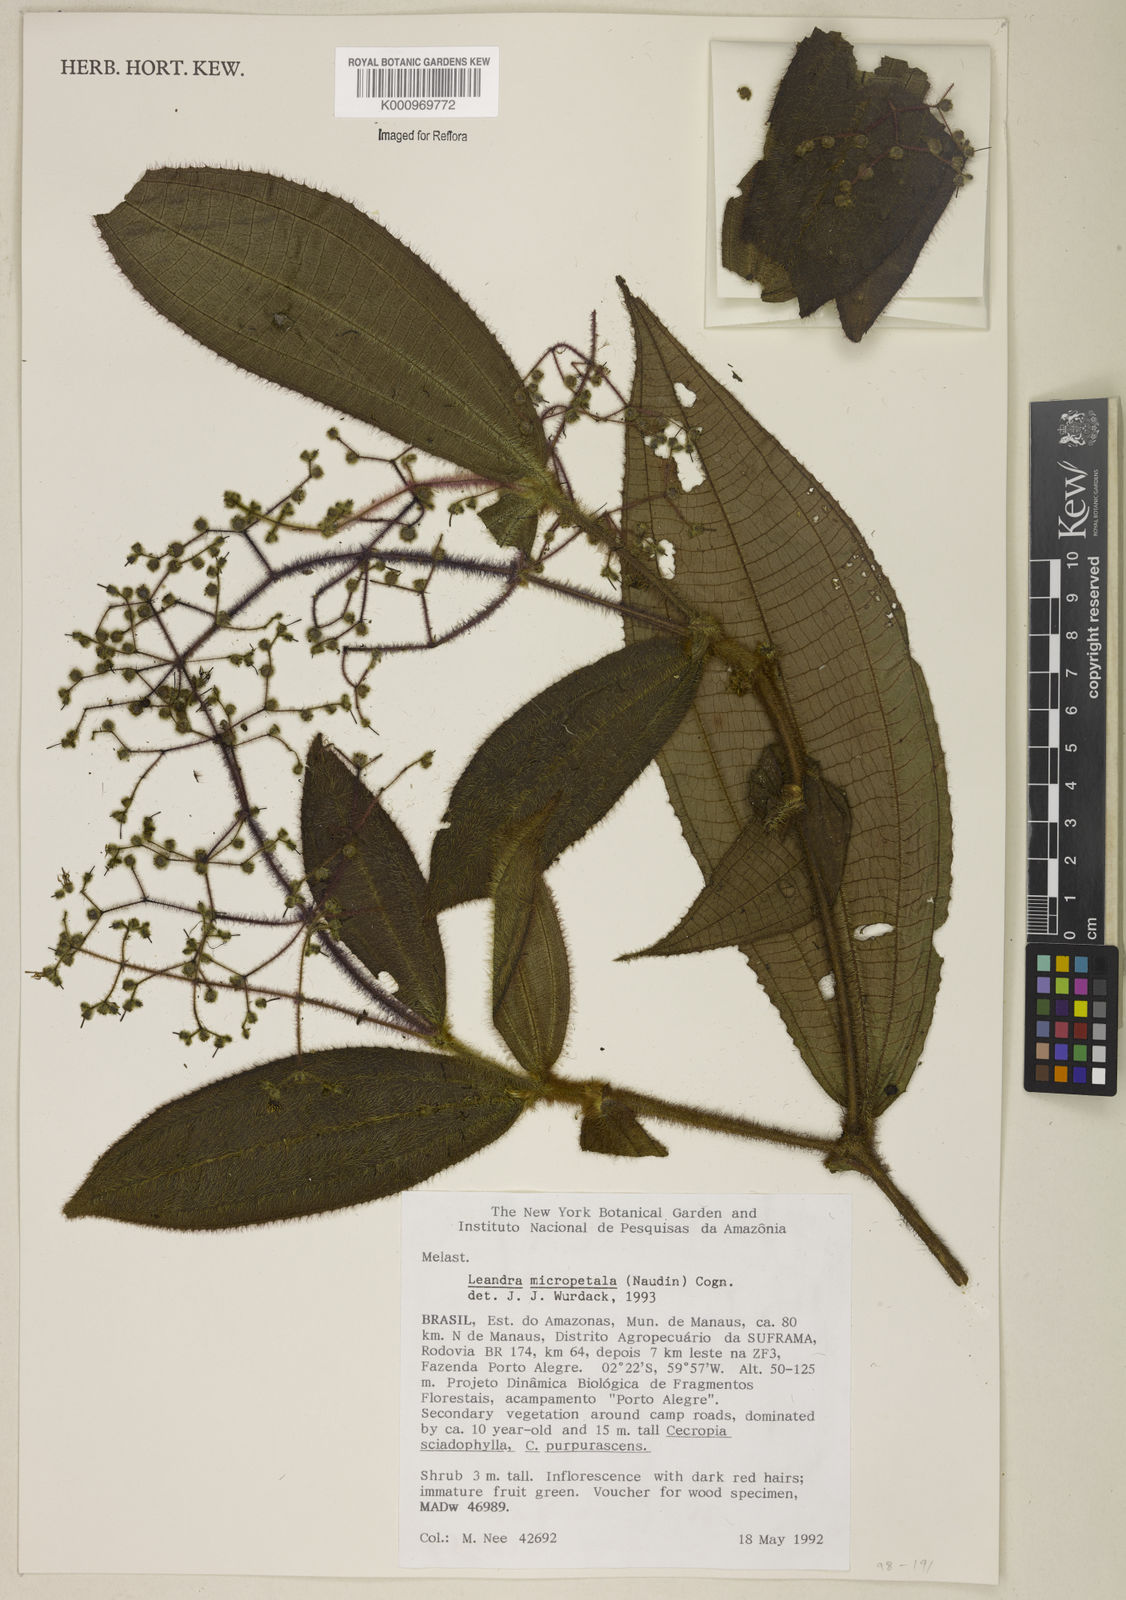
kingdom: Plantae
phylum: Tracheophyta
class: Magnoliopsida
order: Myrtales
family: Melastomataceae
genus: Miconia
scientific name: Miconia nanopetala
